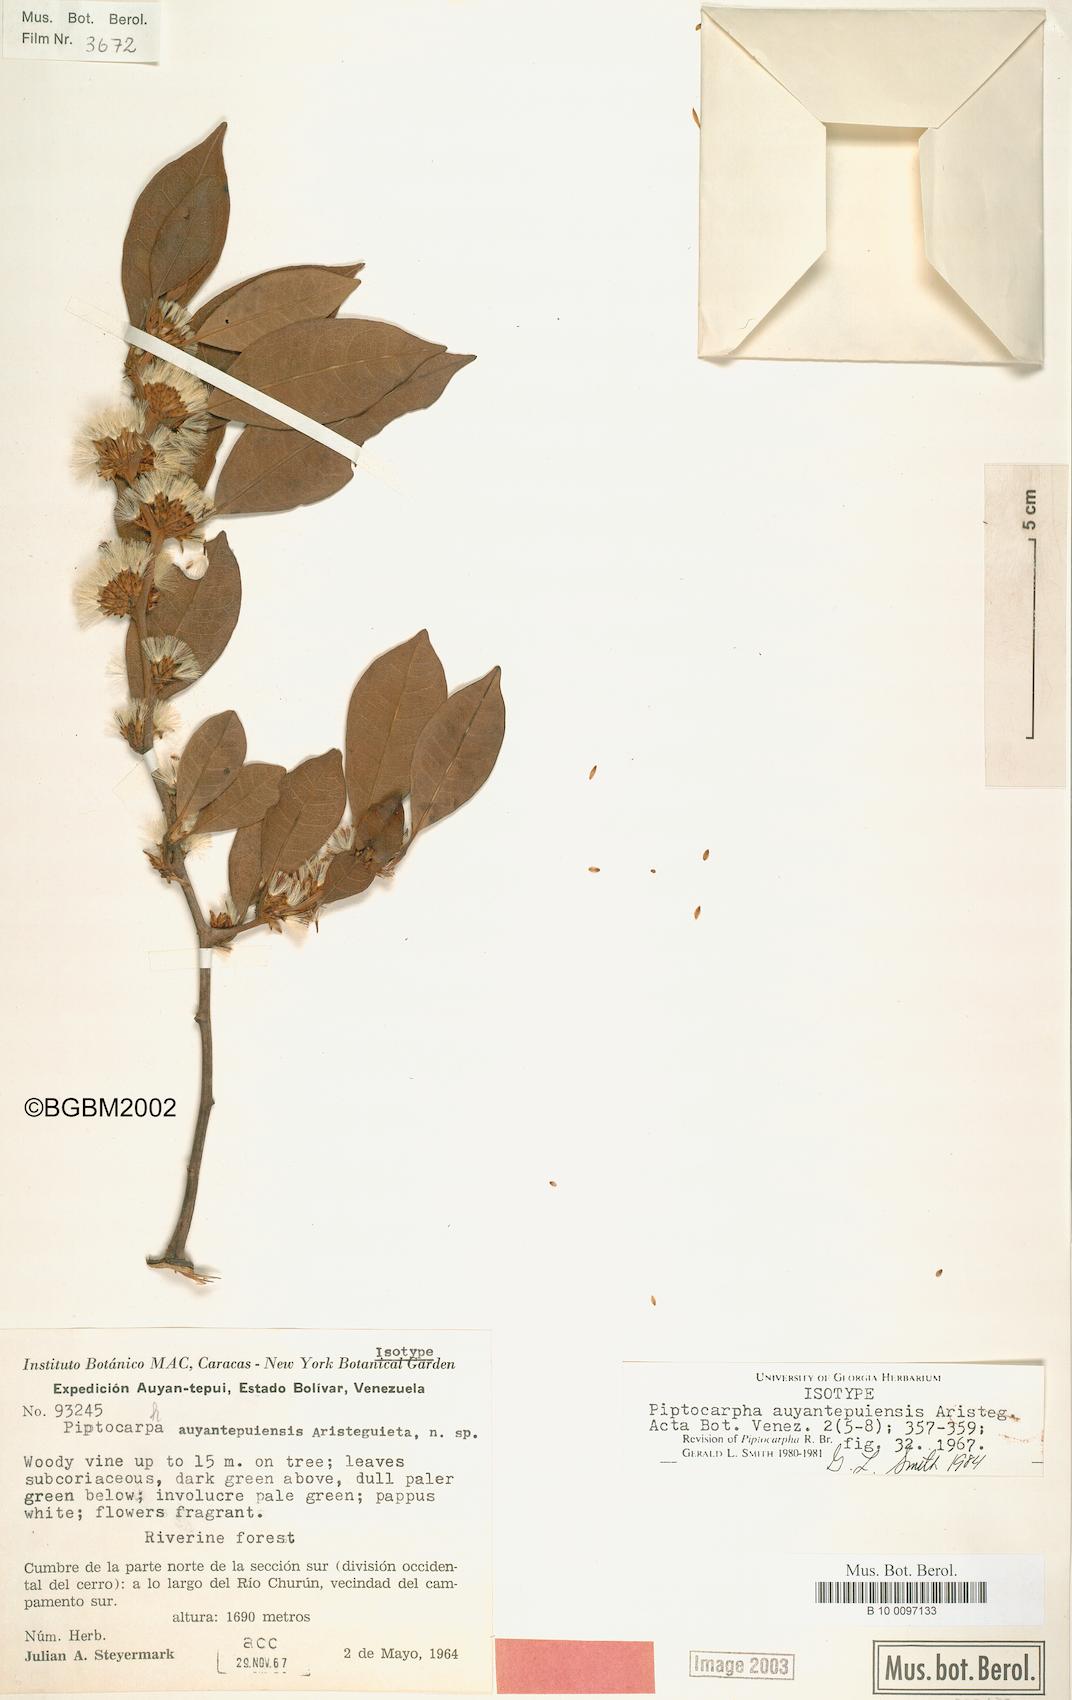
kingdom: Plantae
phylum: Tracheophyta
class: Magnoliopsida
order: Asterales
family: Asteraceae
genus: Piptocarpha
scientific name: Piptocarpha auyantepuiensis
